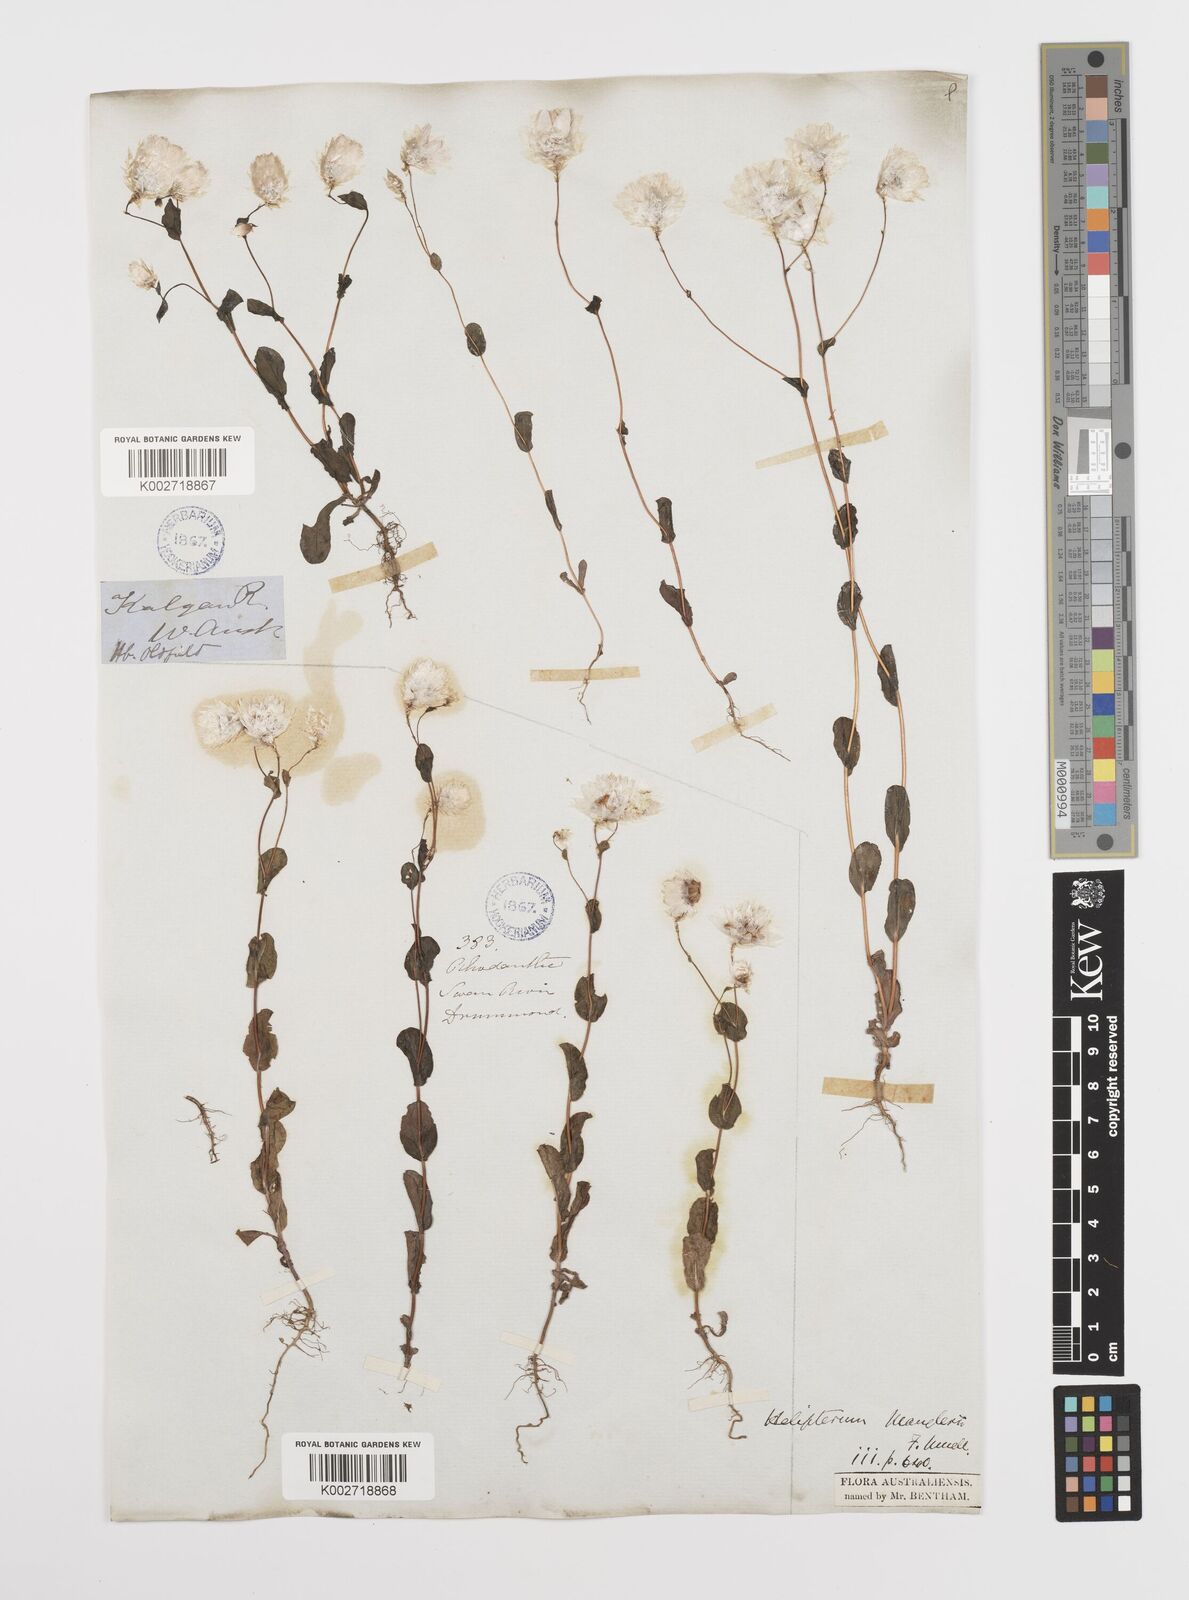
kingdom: Plantae
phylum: Tracheophyta
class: Magnoliopsida
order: Asterales
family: Asteraceae
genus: Rhodanthe
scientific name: Rhodanthe manglesii
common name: Pink sunray
